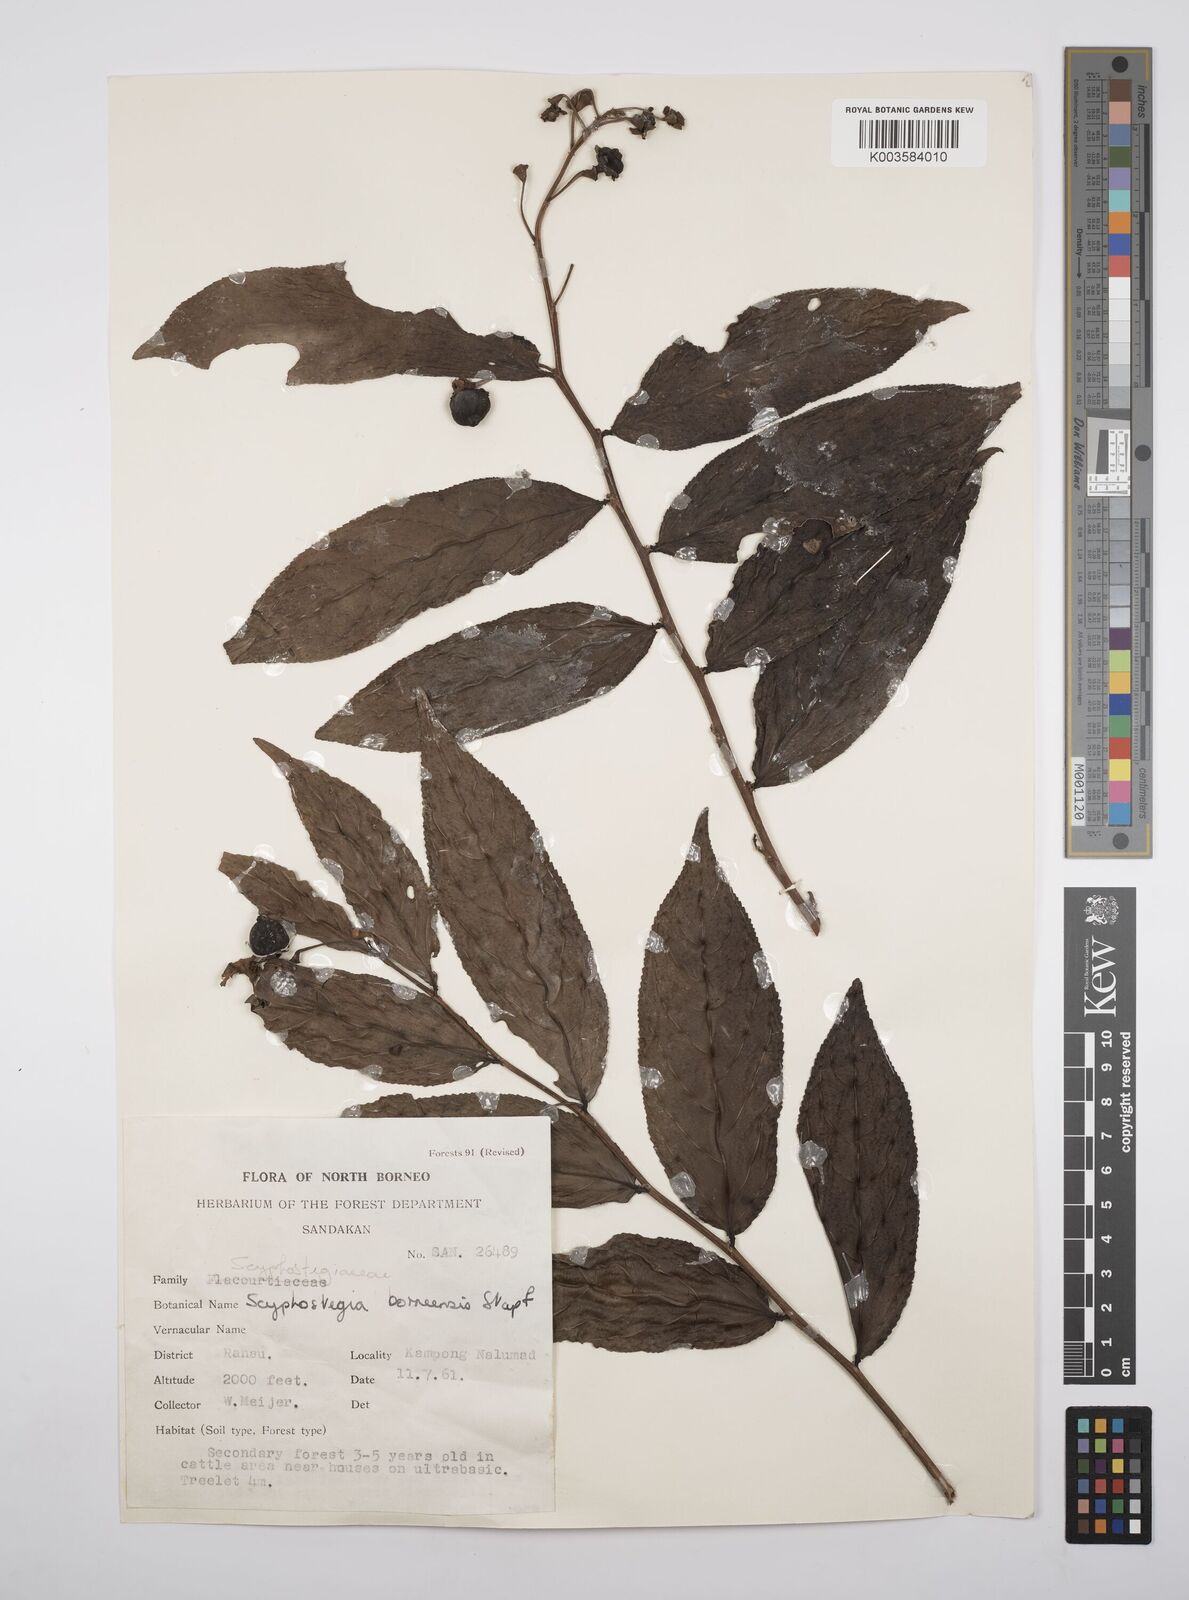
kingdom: Plantae
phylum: Tracheophyta
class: Magnoliopsida
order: Malpighiales
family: Salicaceae
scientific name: Salicaceae
